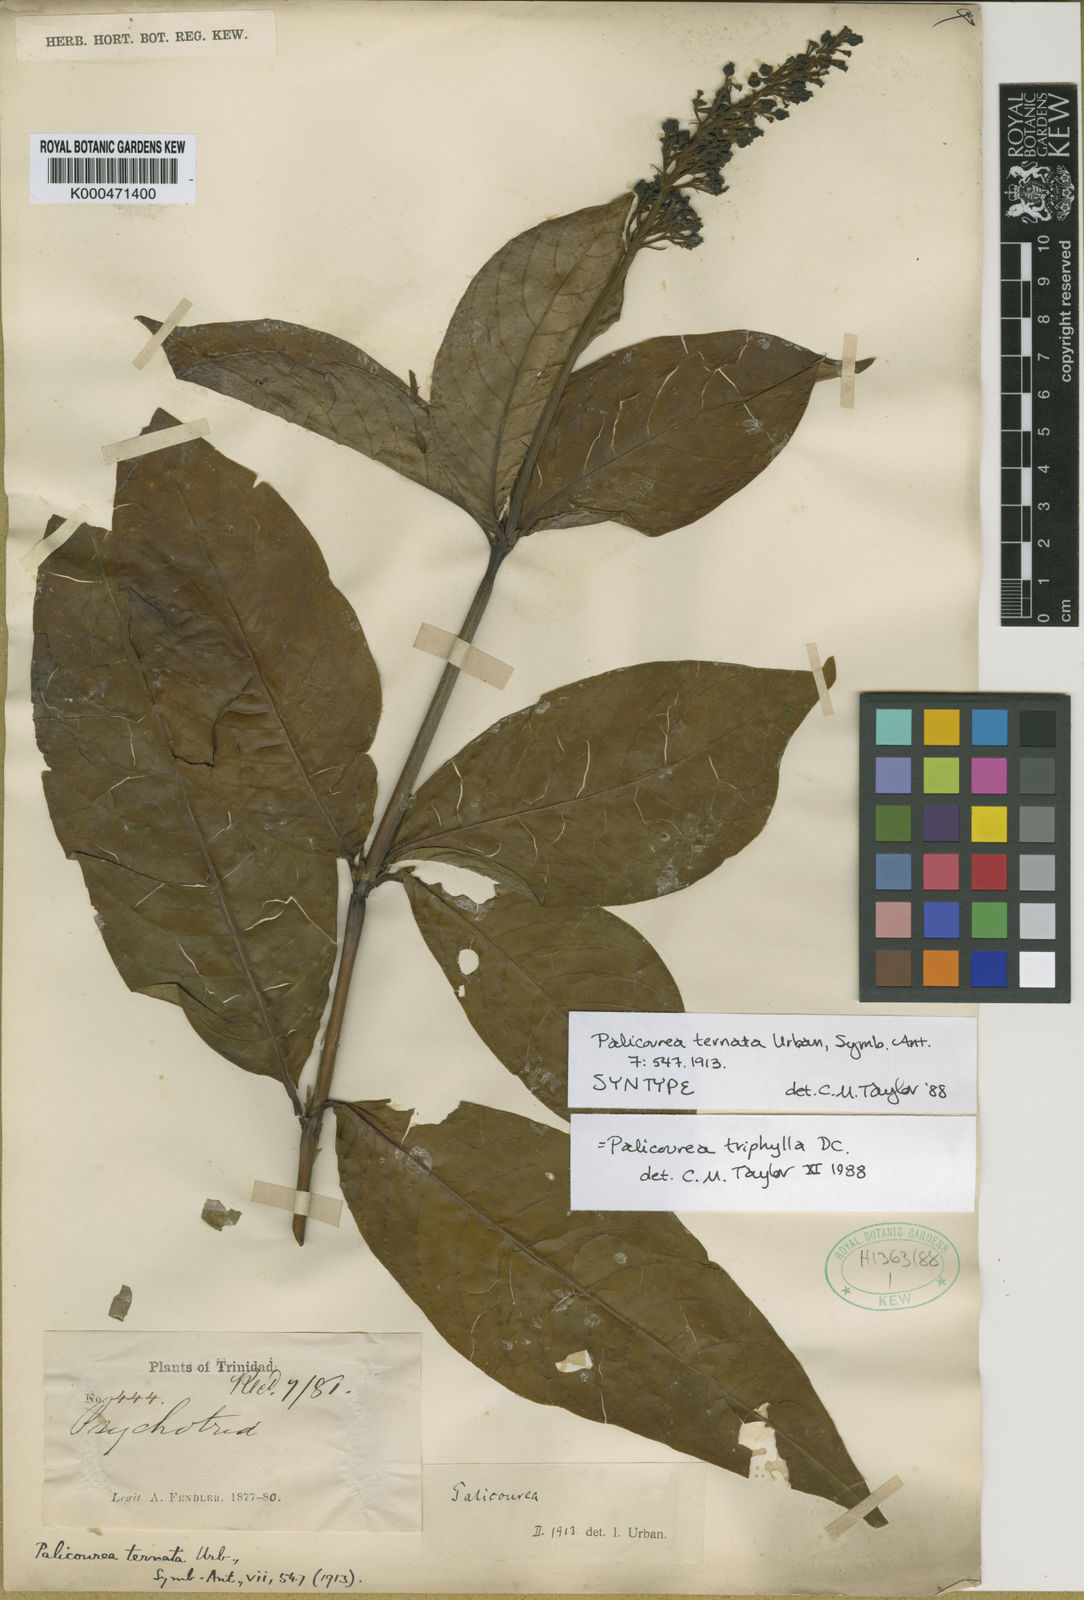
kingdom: Plantae
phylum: Tracheophyta
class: Magnoliopsida
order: Gentianales
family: Rubiaceae
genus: Palicourea
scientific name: Palicourea triphylla
